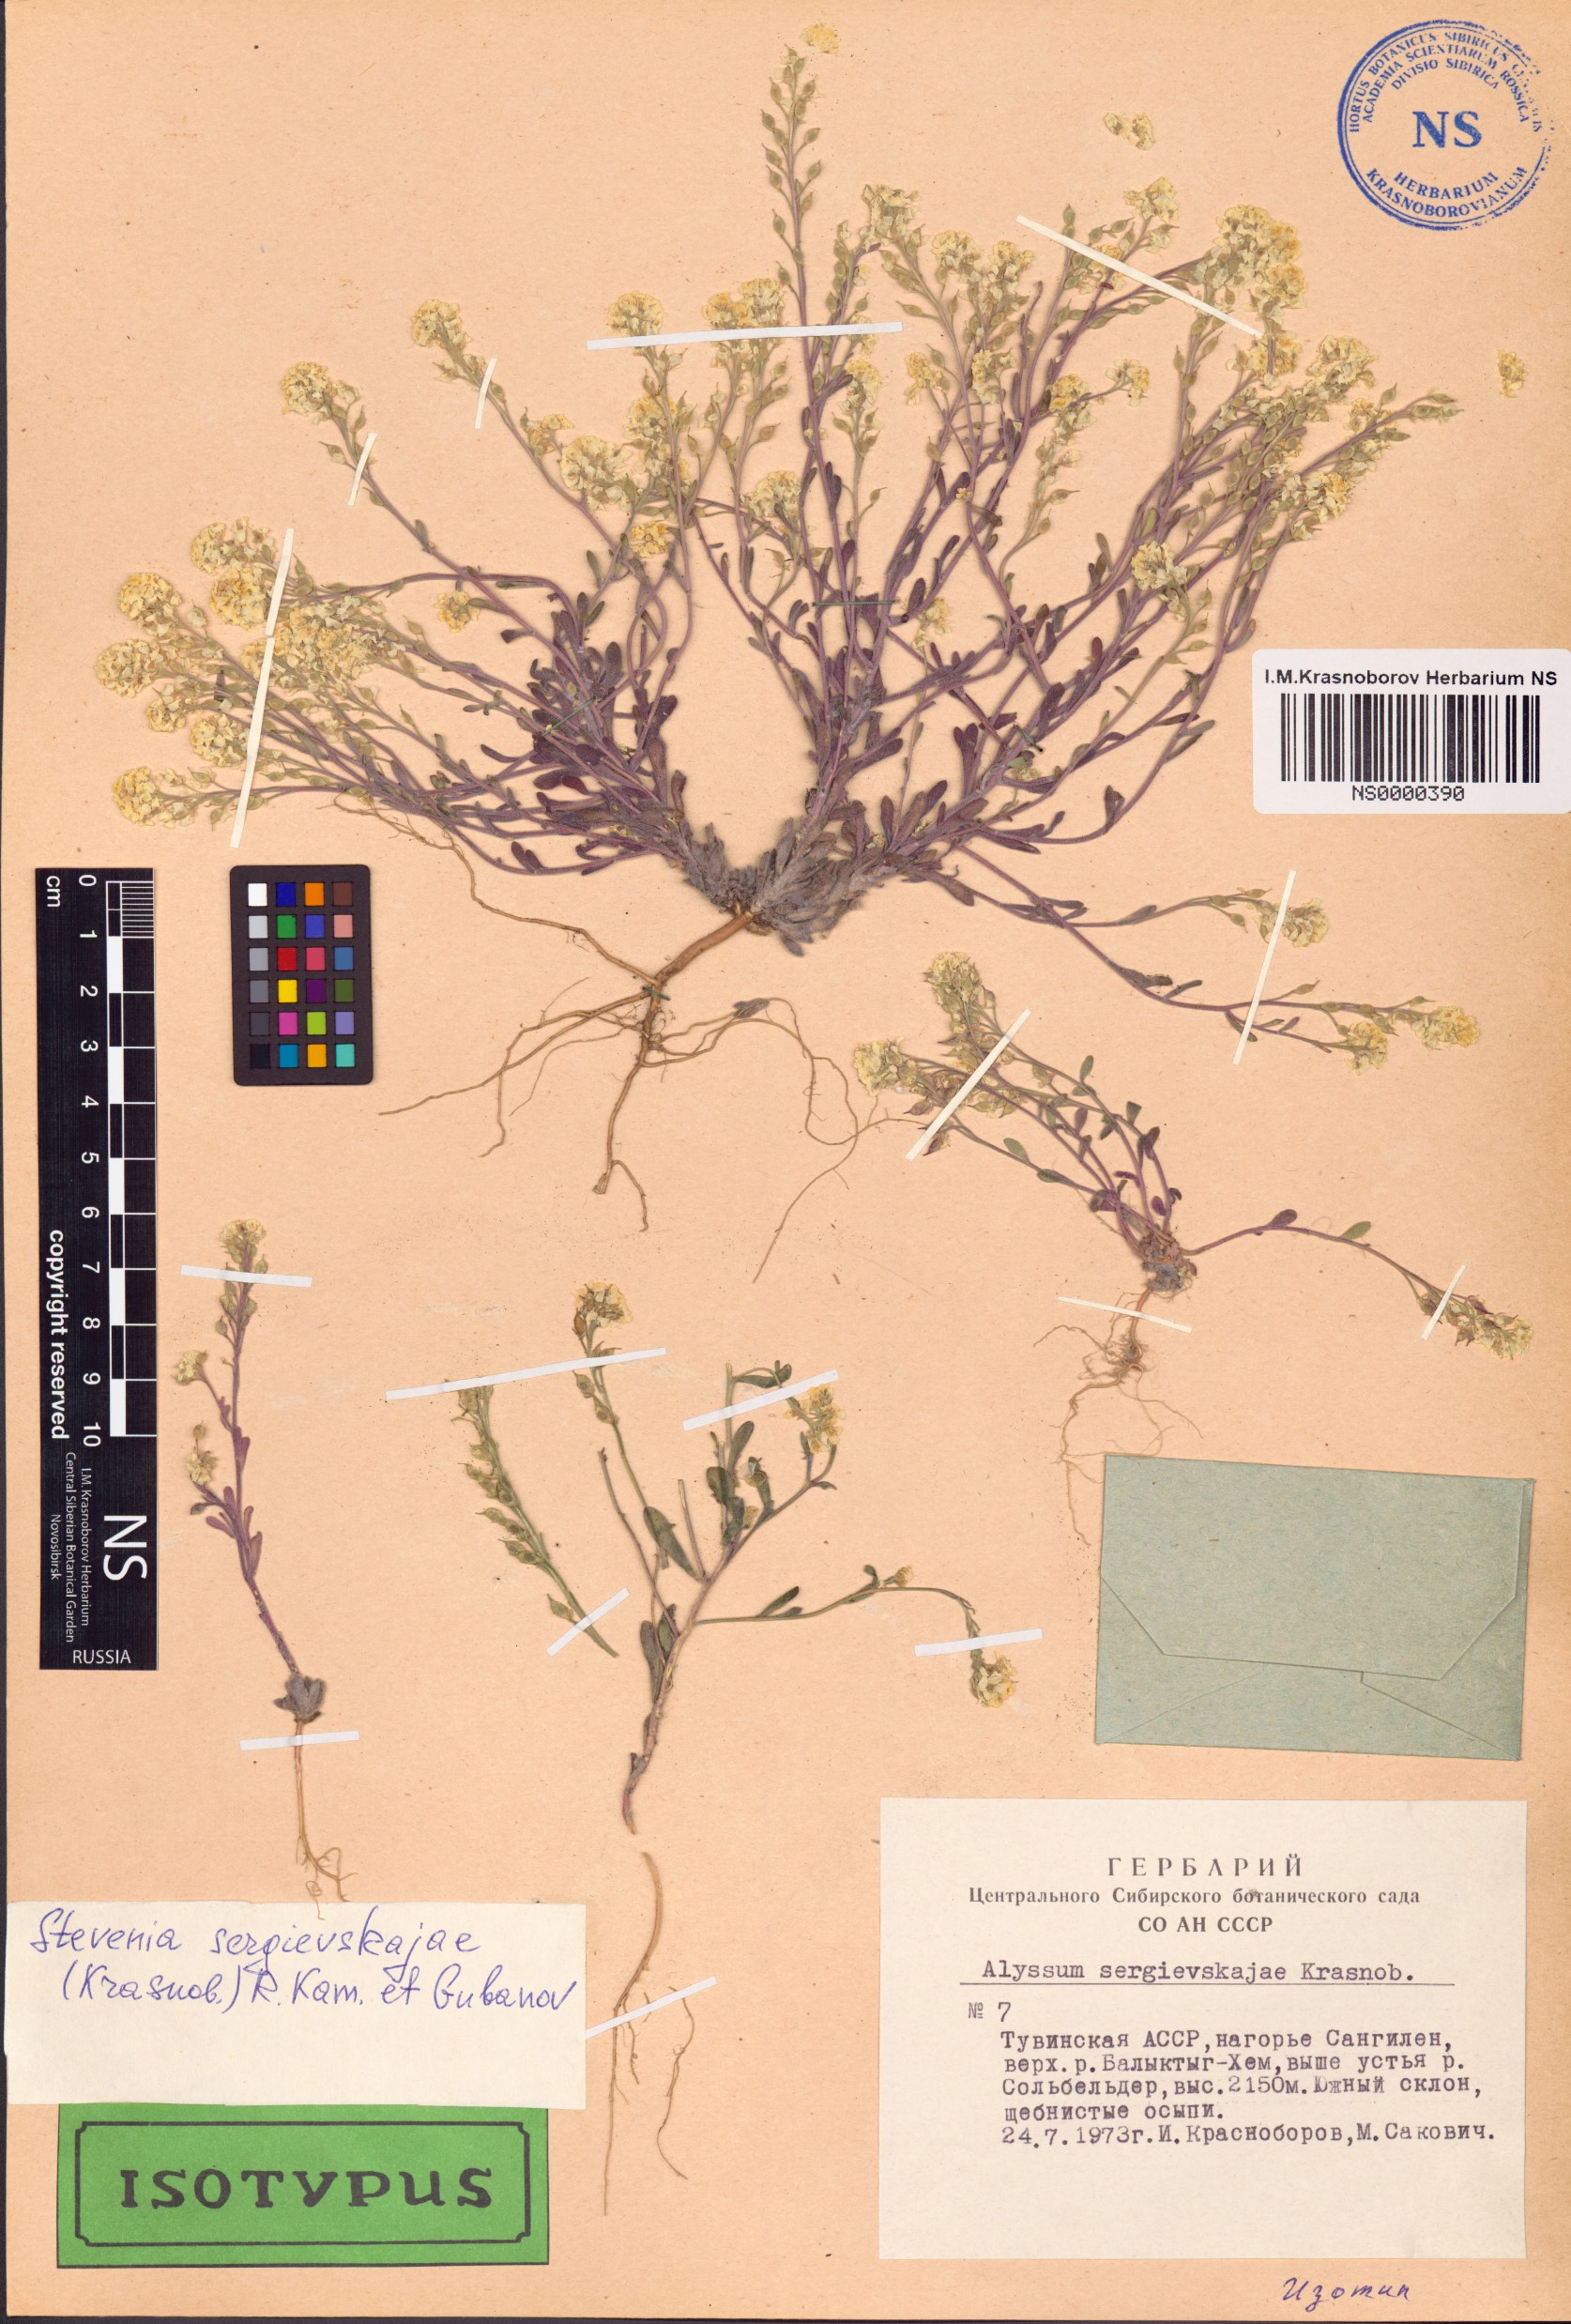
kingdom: Plantae
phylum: Tracheophyta
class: Magnoliopsida
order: Brassicales
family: Brassicaceae
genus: Stevenia
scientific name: Stevenia sergievskajae
